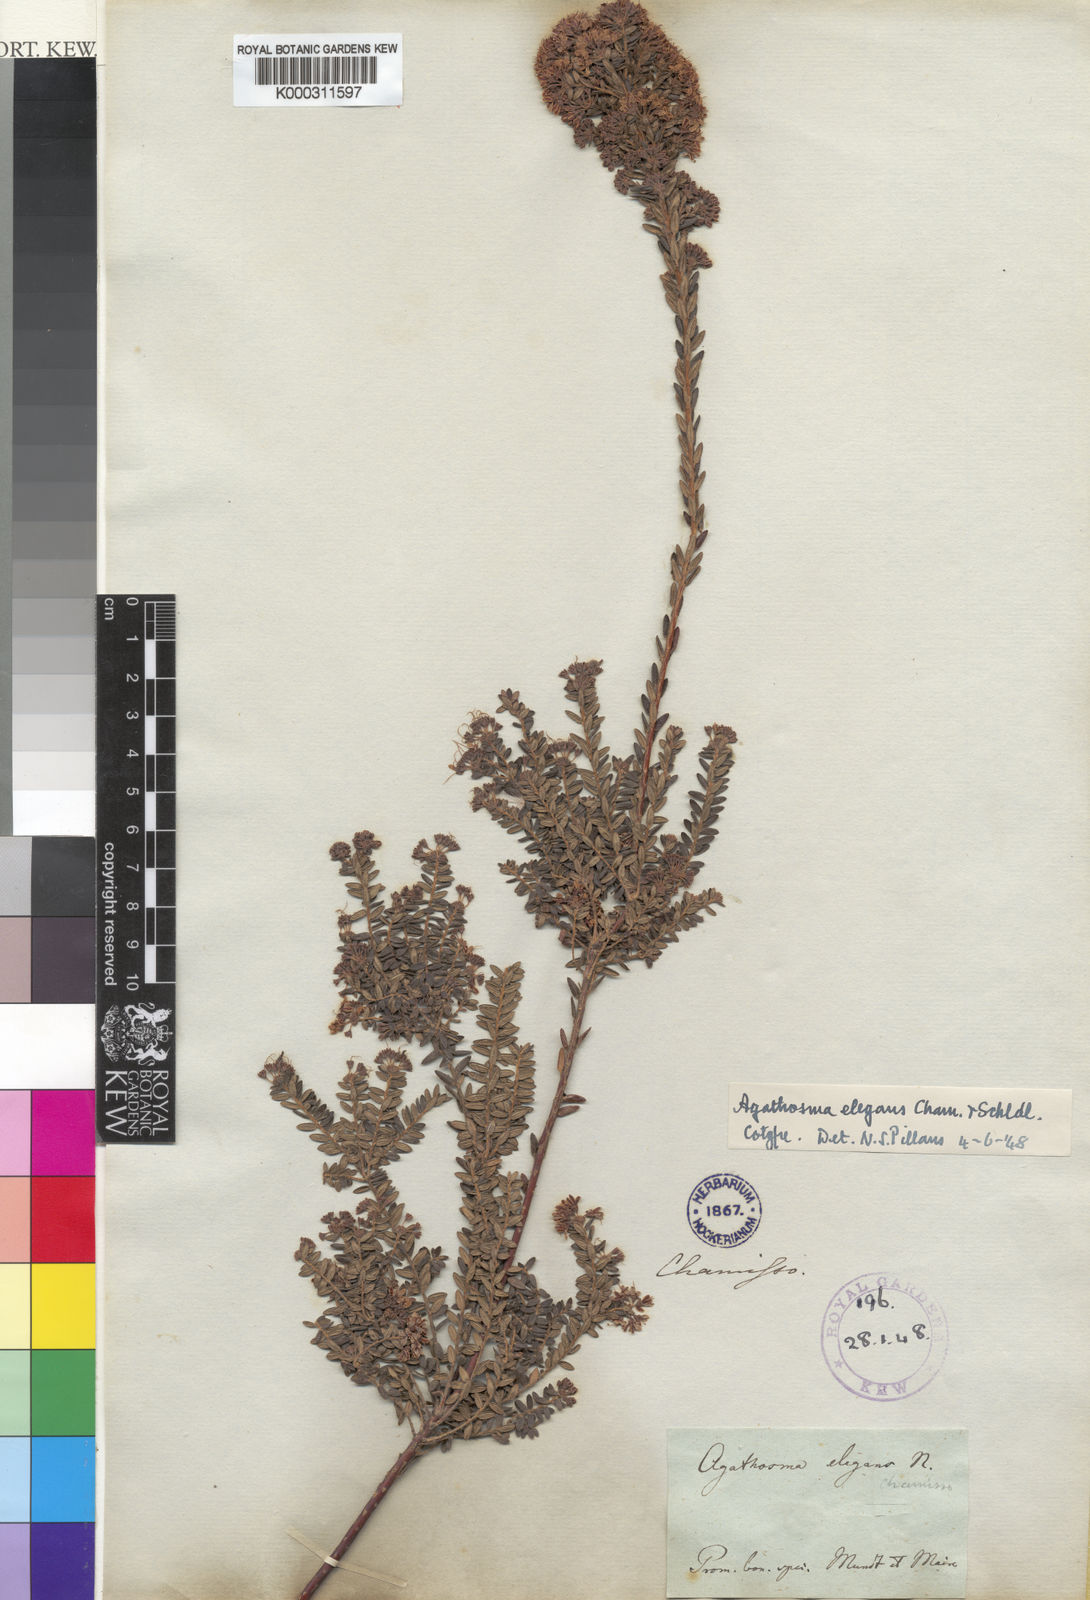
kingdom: Plantae
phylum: Tracheophyta
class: Magnoliopsida
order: Sapindales
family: Rutaceae
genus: Agathosma
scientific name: Agathosma elegans
